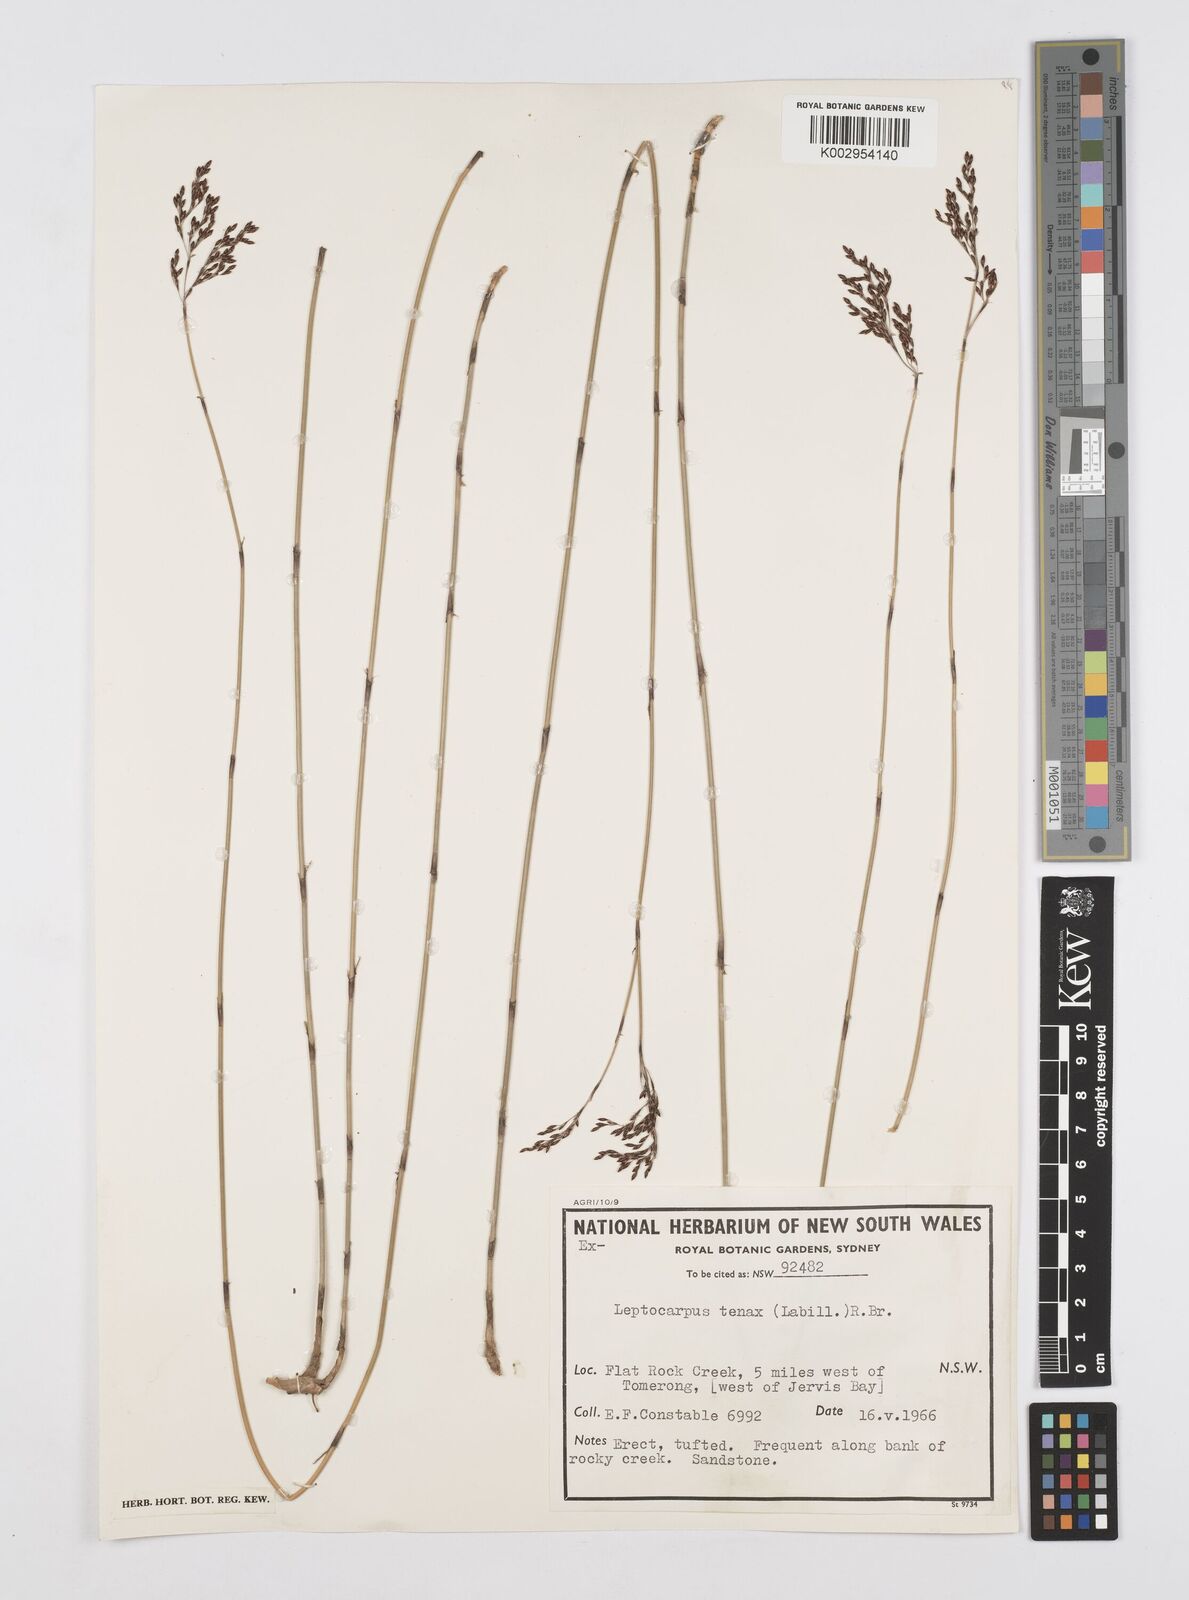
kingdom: Plantae
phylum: Tracheophyta
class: Liliopsida
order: Poales
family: Restionaceae
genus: Leptocarpus
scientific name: Leptocarpus tenax
